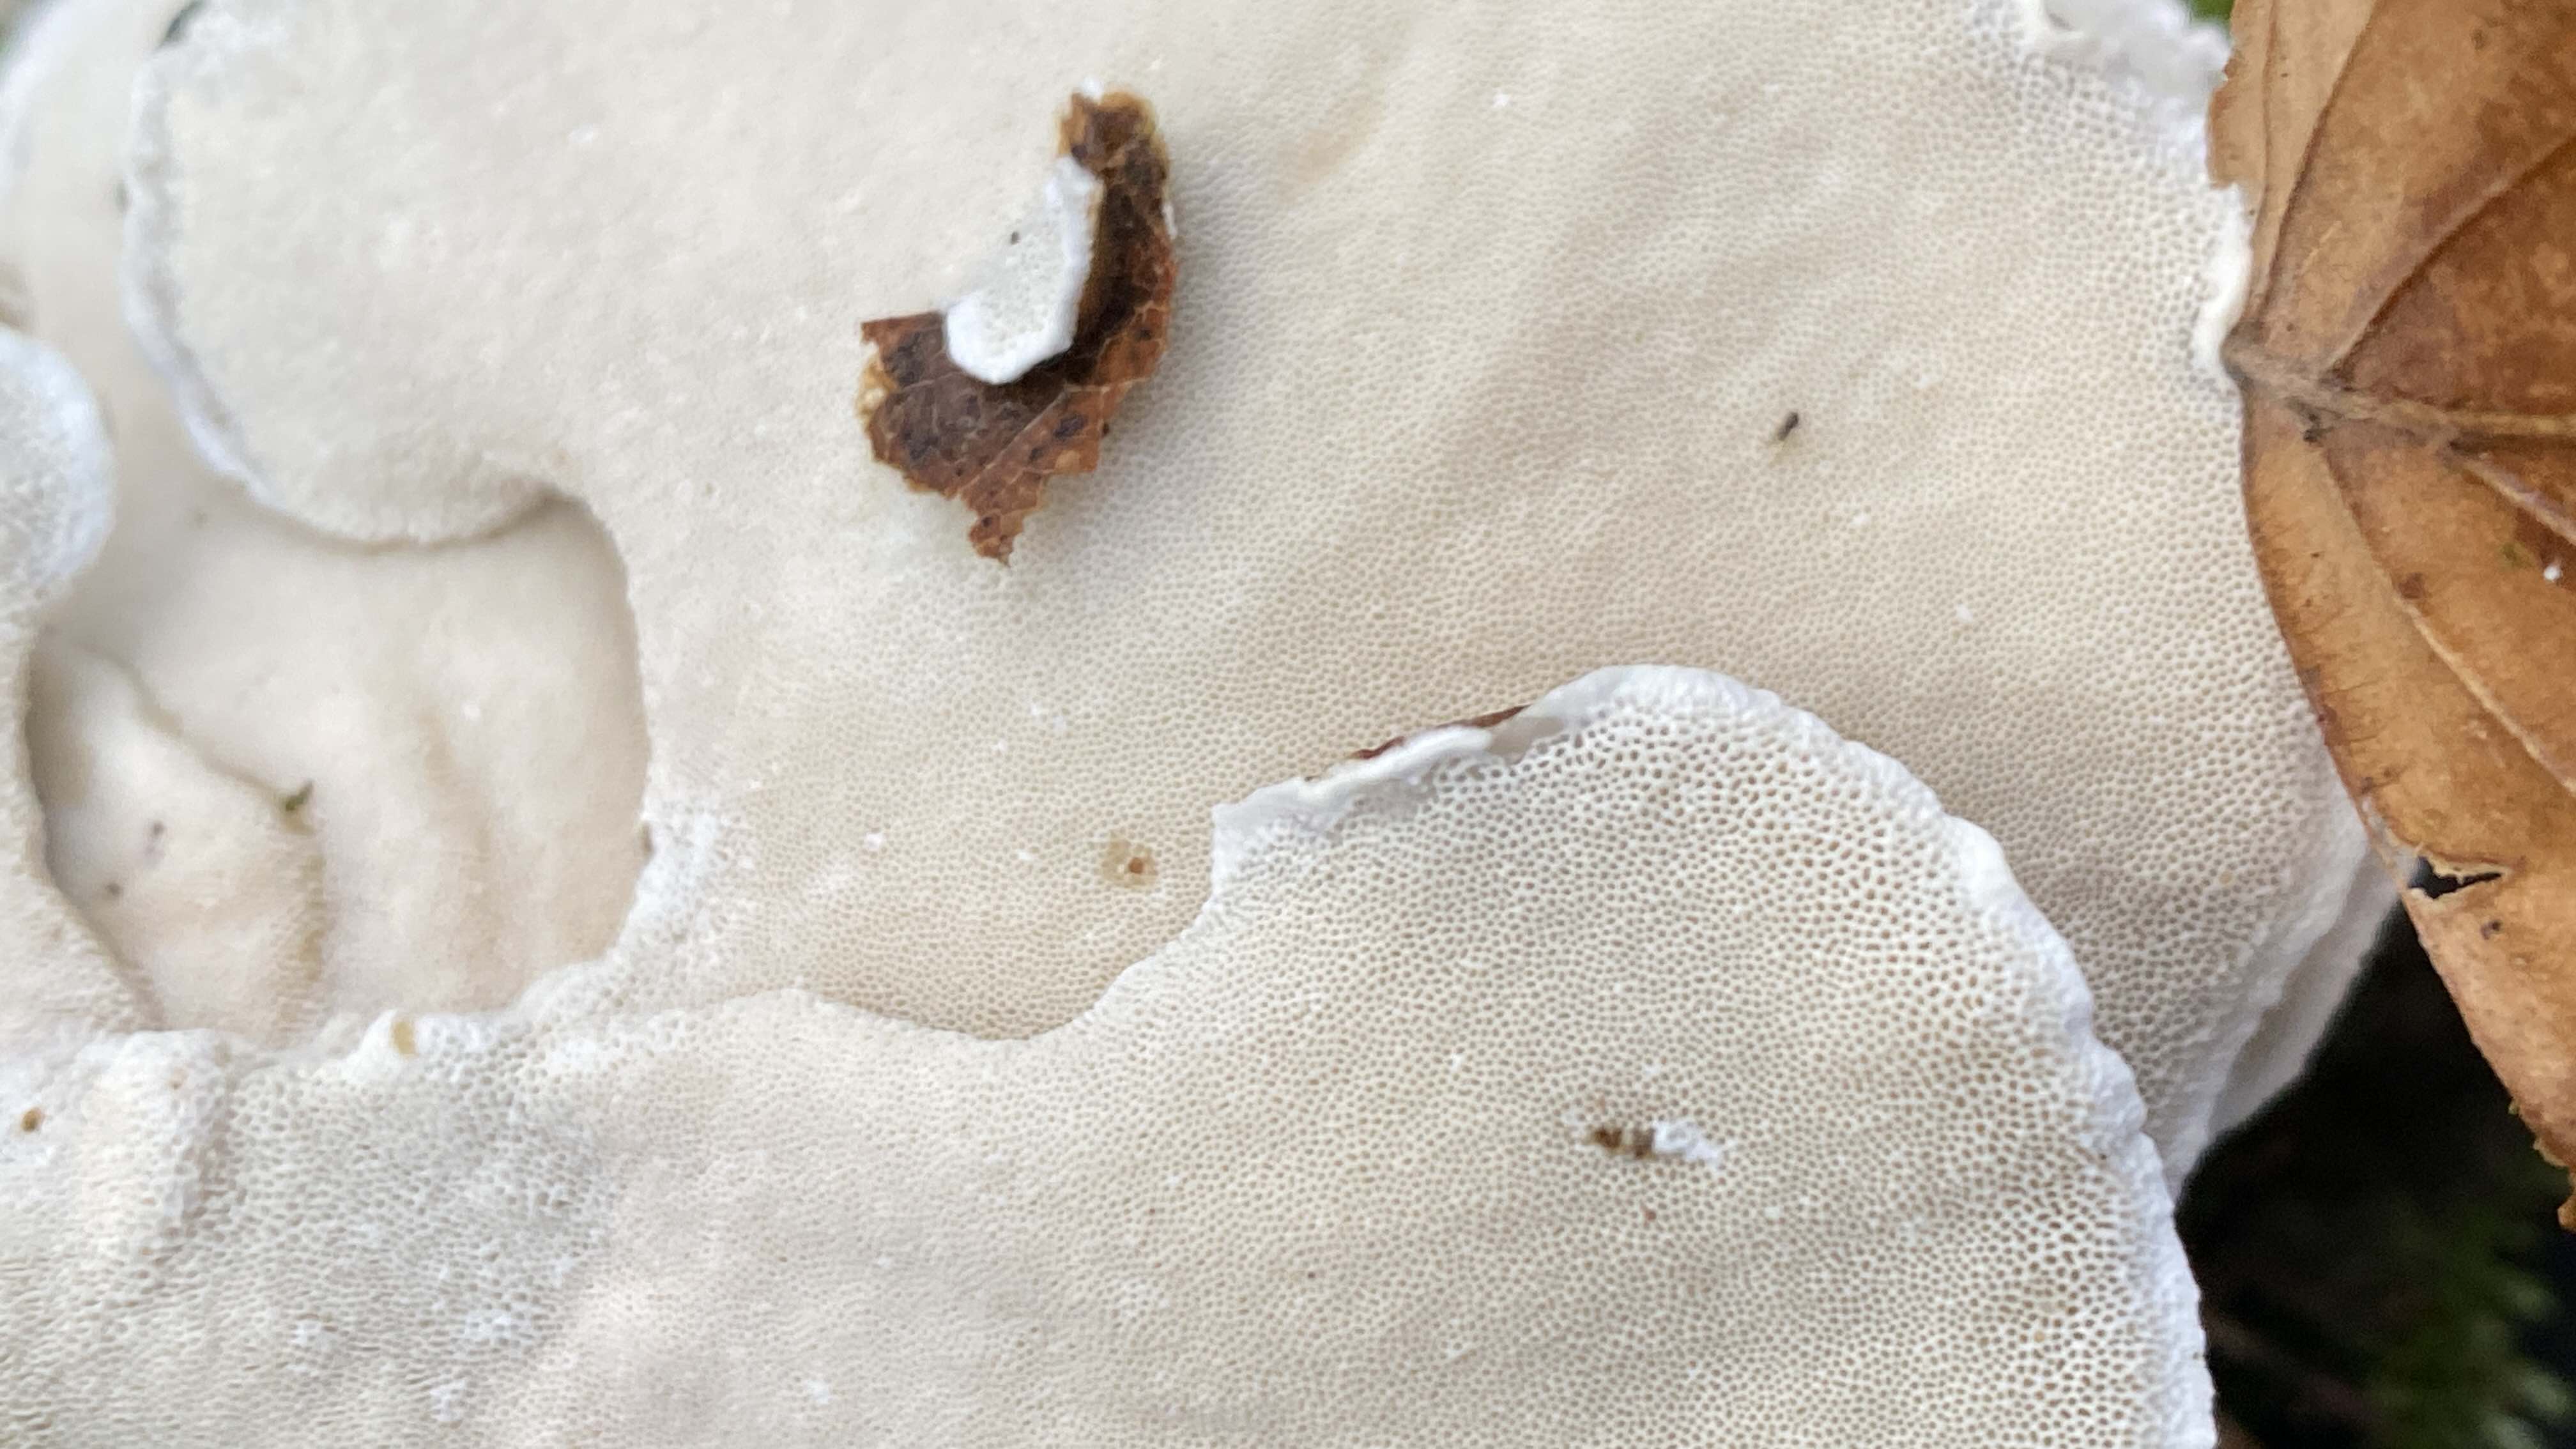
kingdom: Fungi
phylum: Basidiomycota
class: Agaricomycetes
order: Polyporales
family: Polyporaceae
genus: Trametes
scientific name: Trametes versicolor
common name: broget læderporesvamp
